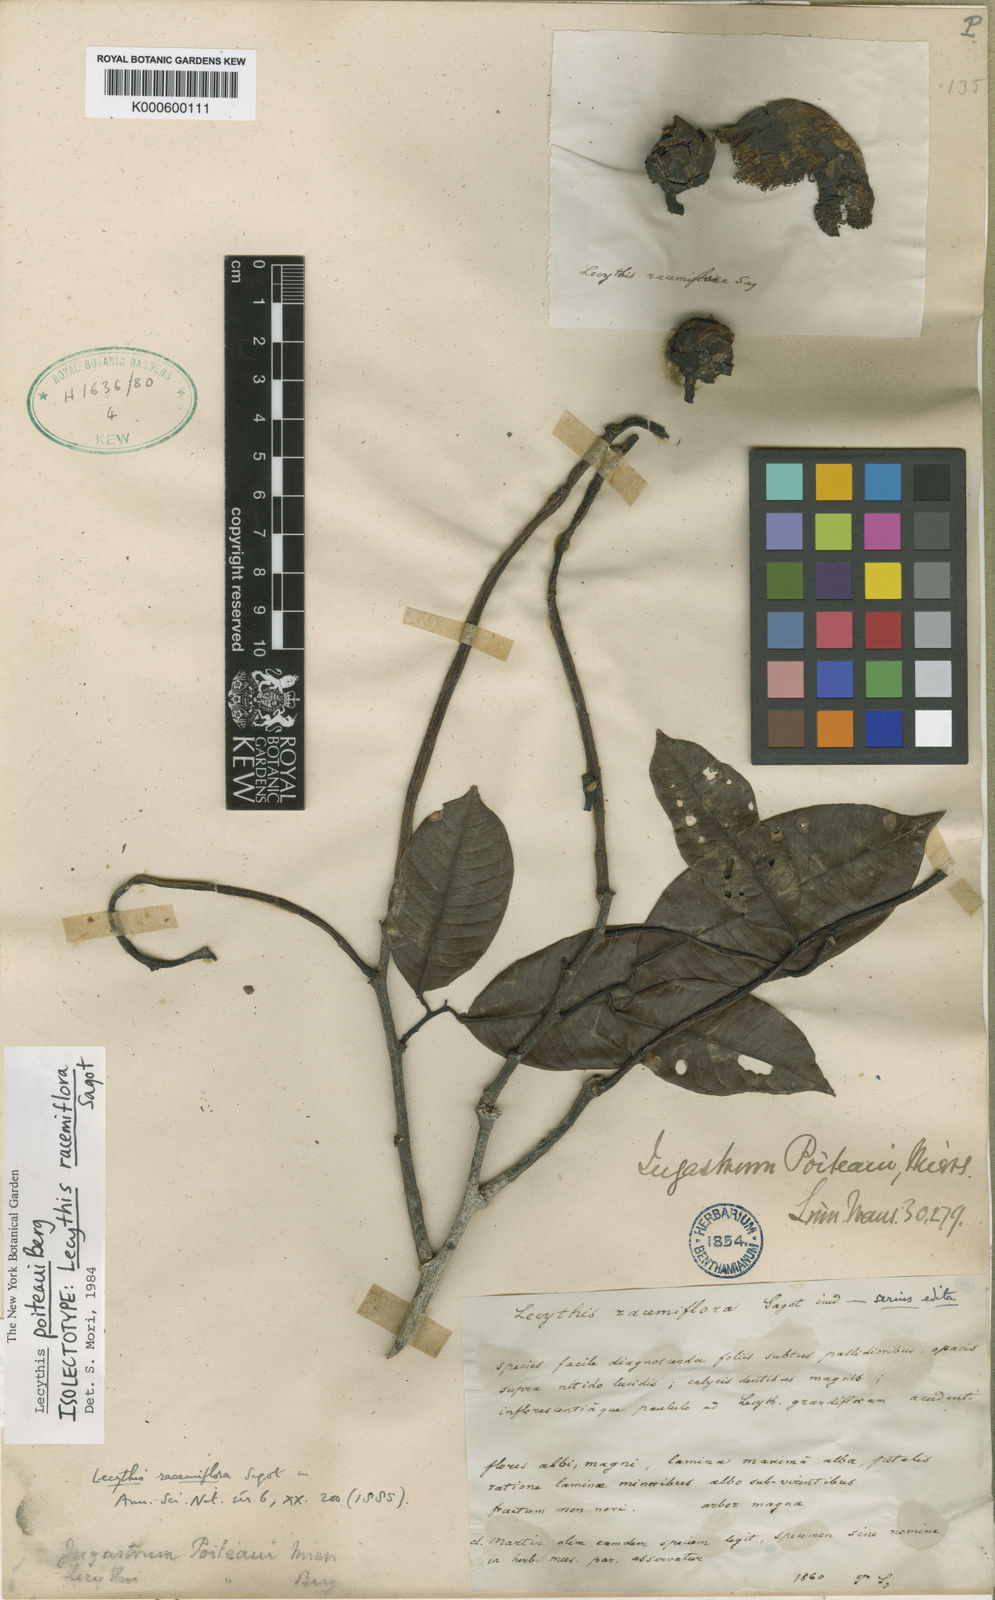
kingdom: Plantae
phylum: Tracheophyta
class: Magnoliopsida
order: Ericales
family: Lecythidaceae
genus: Lecythis
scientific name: Lecythis poiteaui
